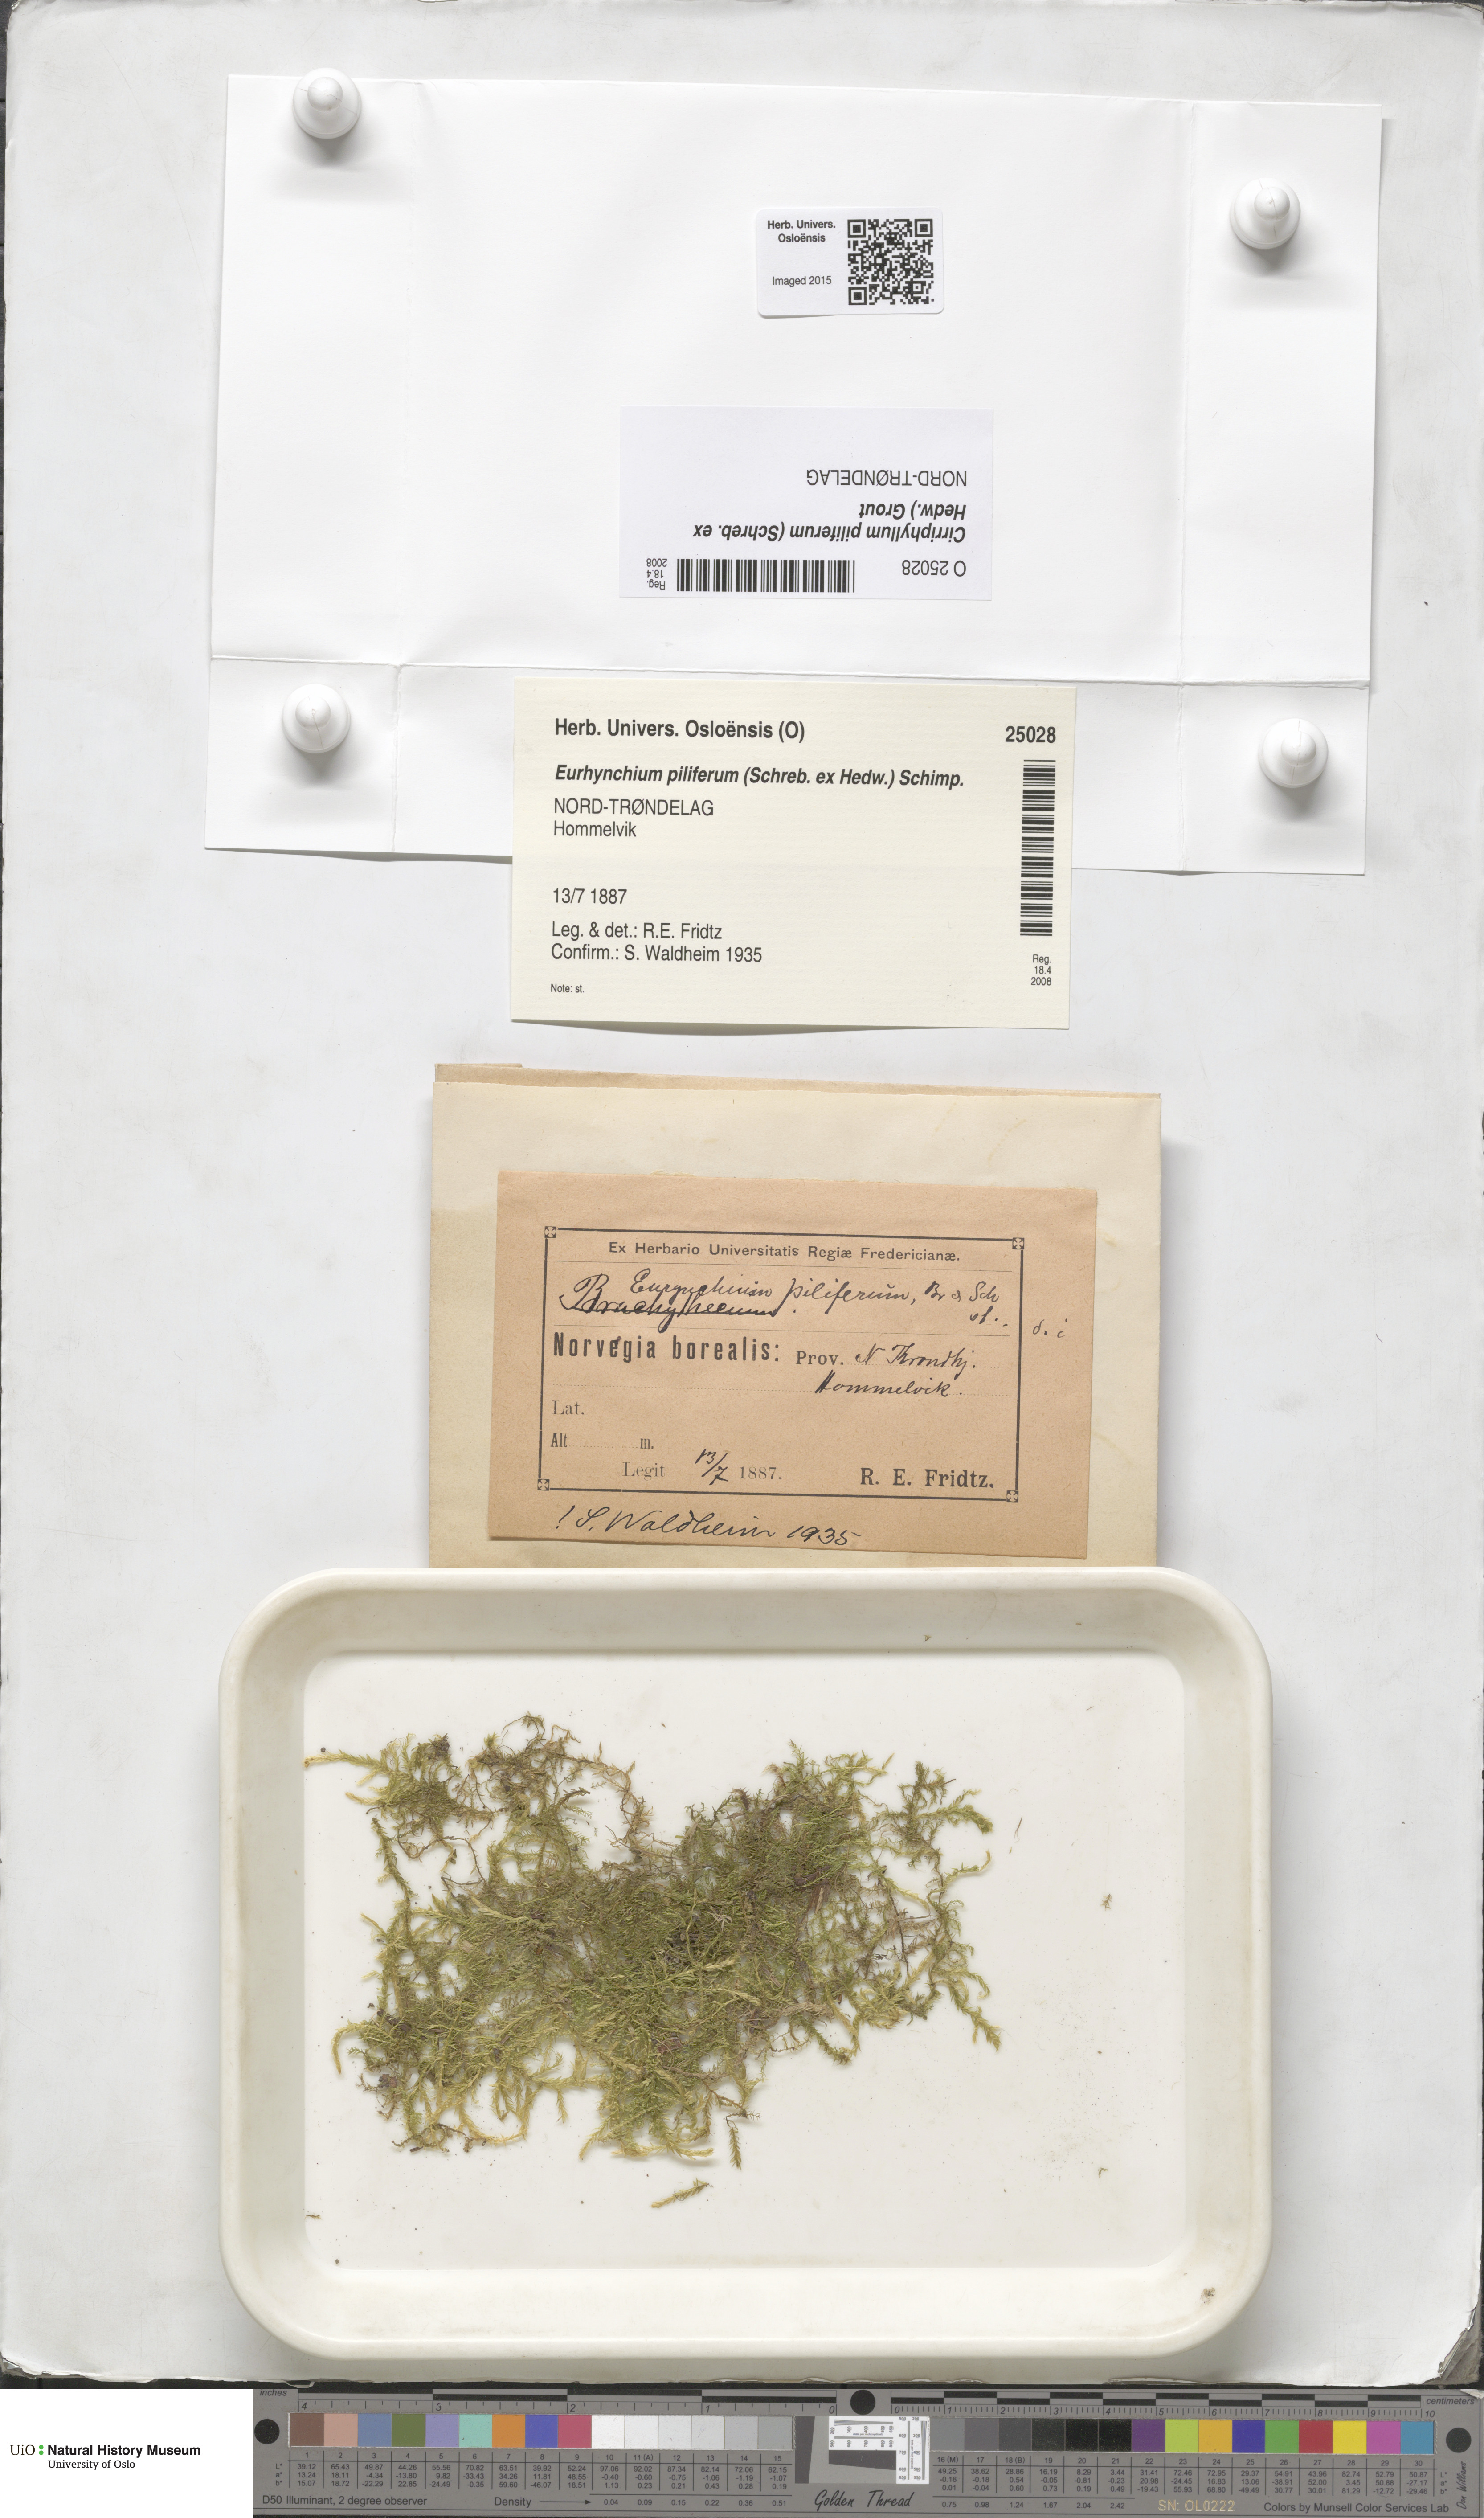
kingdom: Plantae
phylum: Bryophyta
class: Bryopsida
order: Hypnales
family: Brachytheciaceae
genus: Cirriphyllum
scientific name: Cirriphyllum piliferum
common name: Hair-pointed moss
